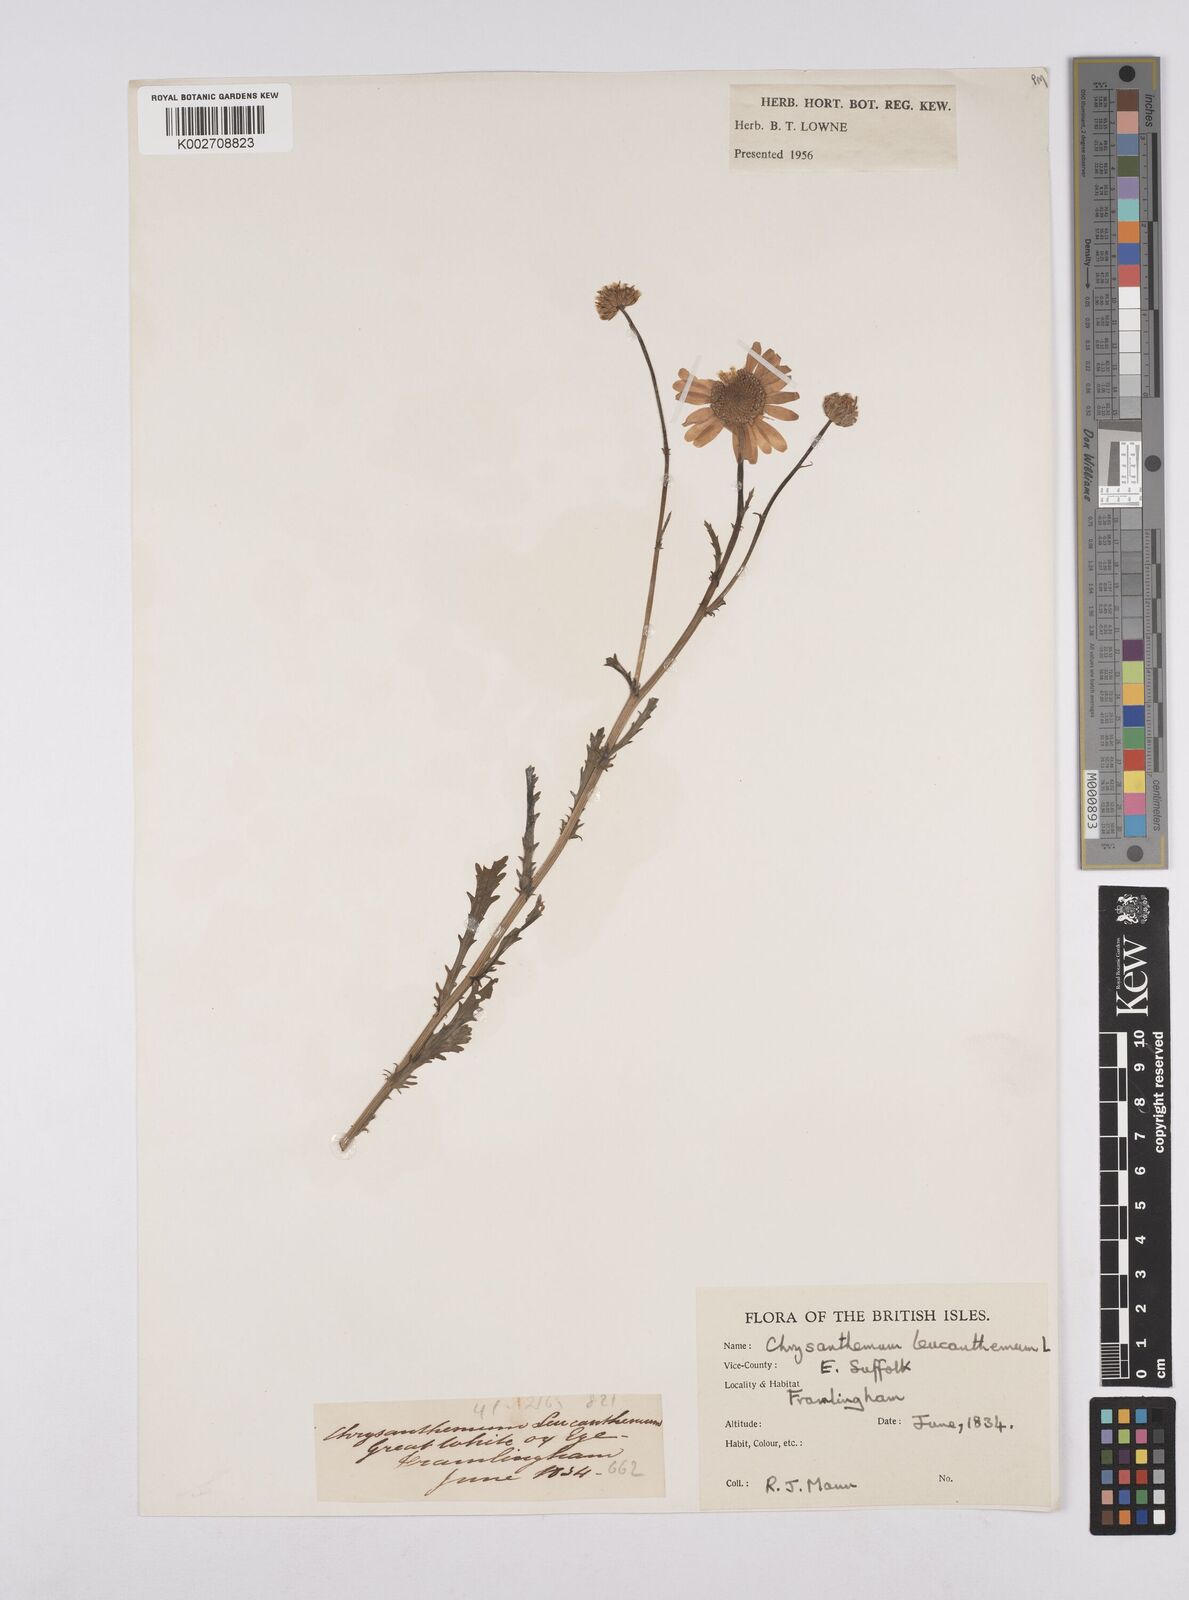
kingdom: Plantae
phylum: Tracheophyta
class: Magnoliopsida
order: Asterales
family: Asteraceae
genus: Leucanthemum
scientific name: Leucanthemum
